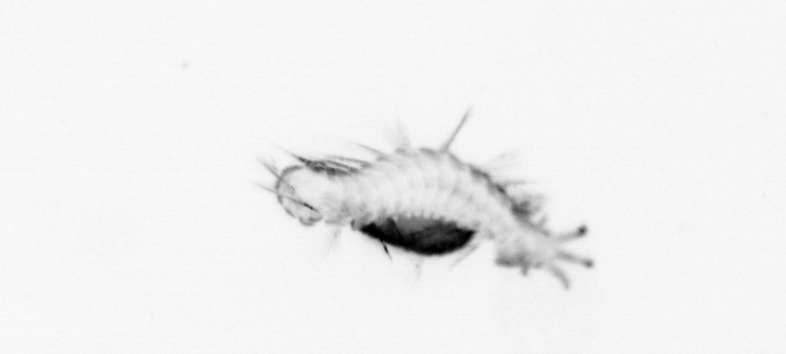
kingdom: Animalia
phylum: Annelida
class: Polychaeta
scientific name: Polychaeta
